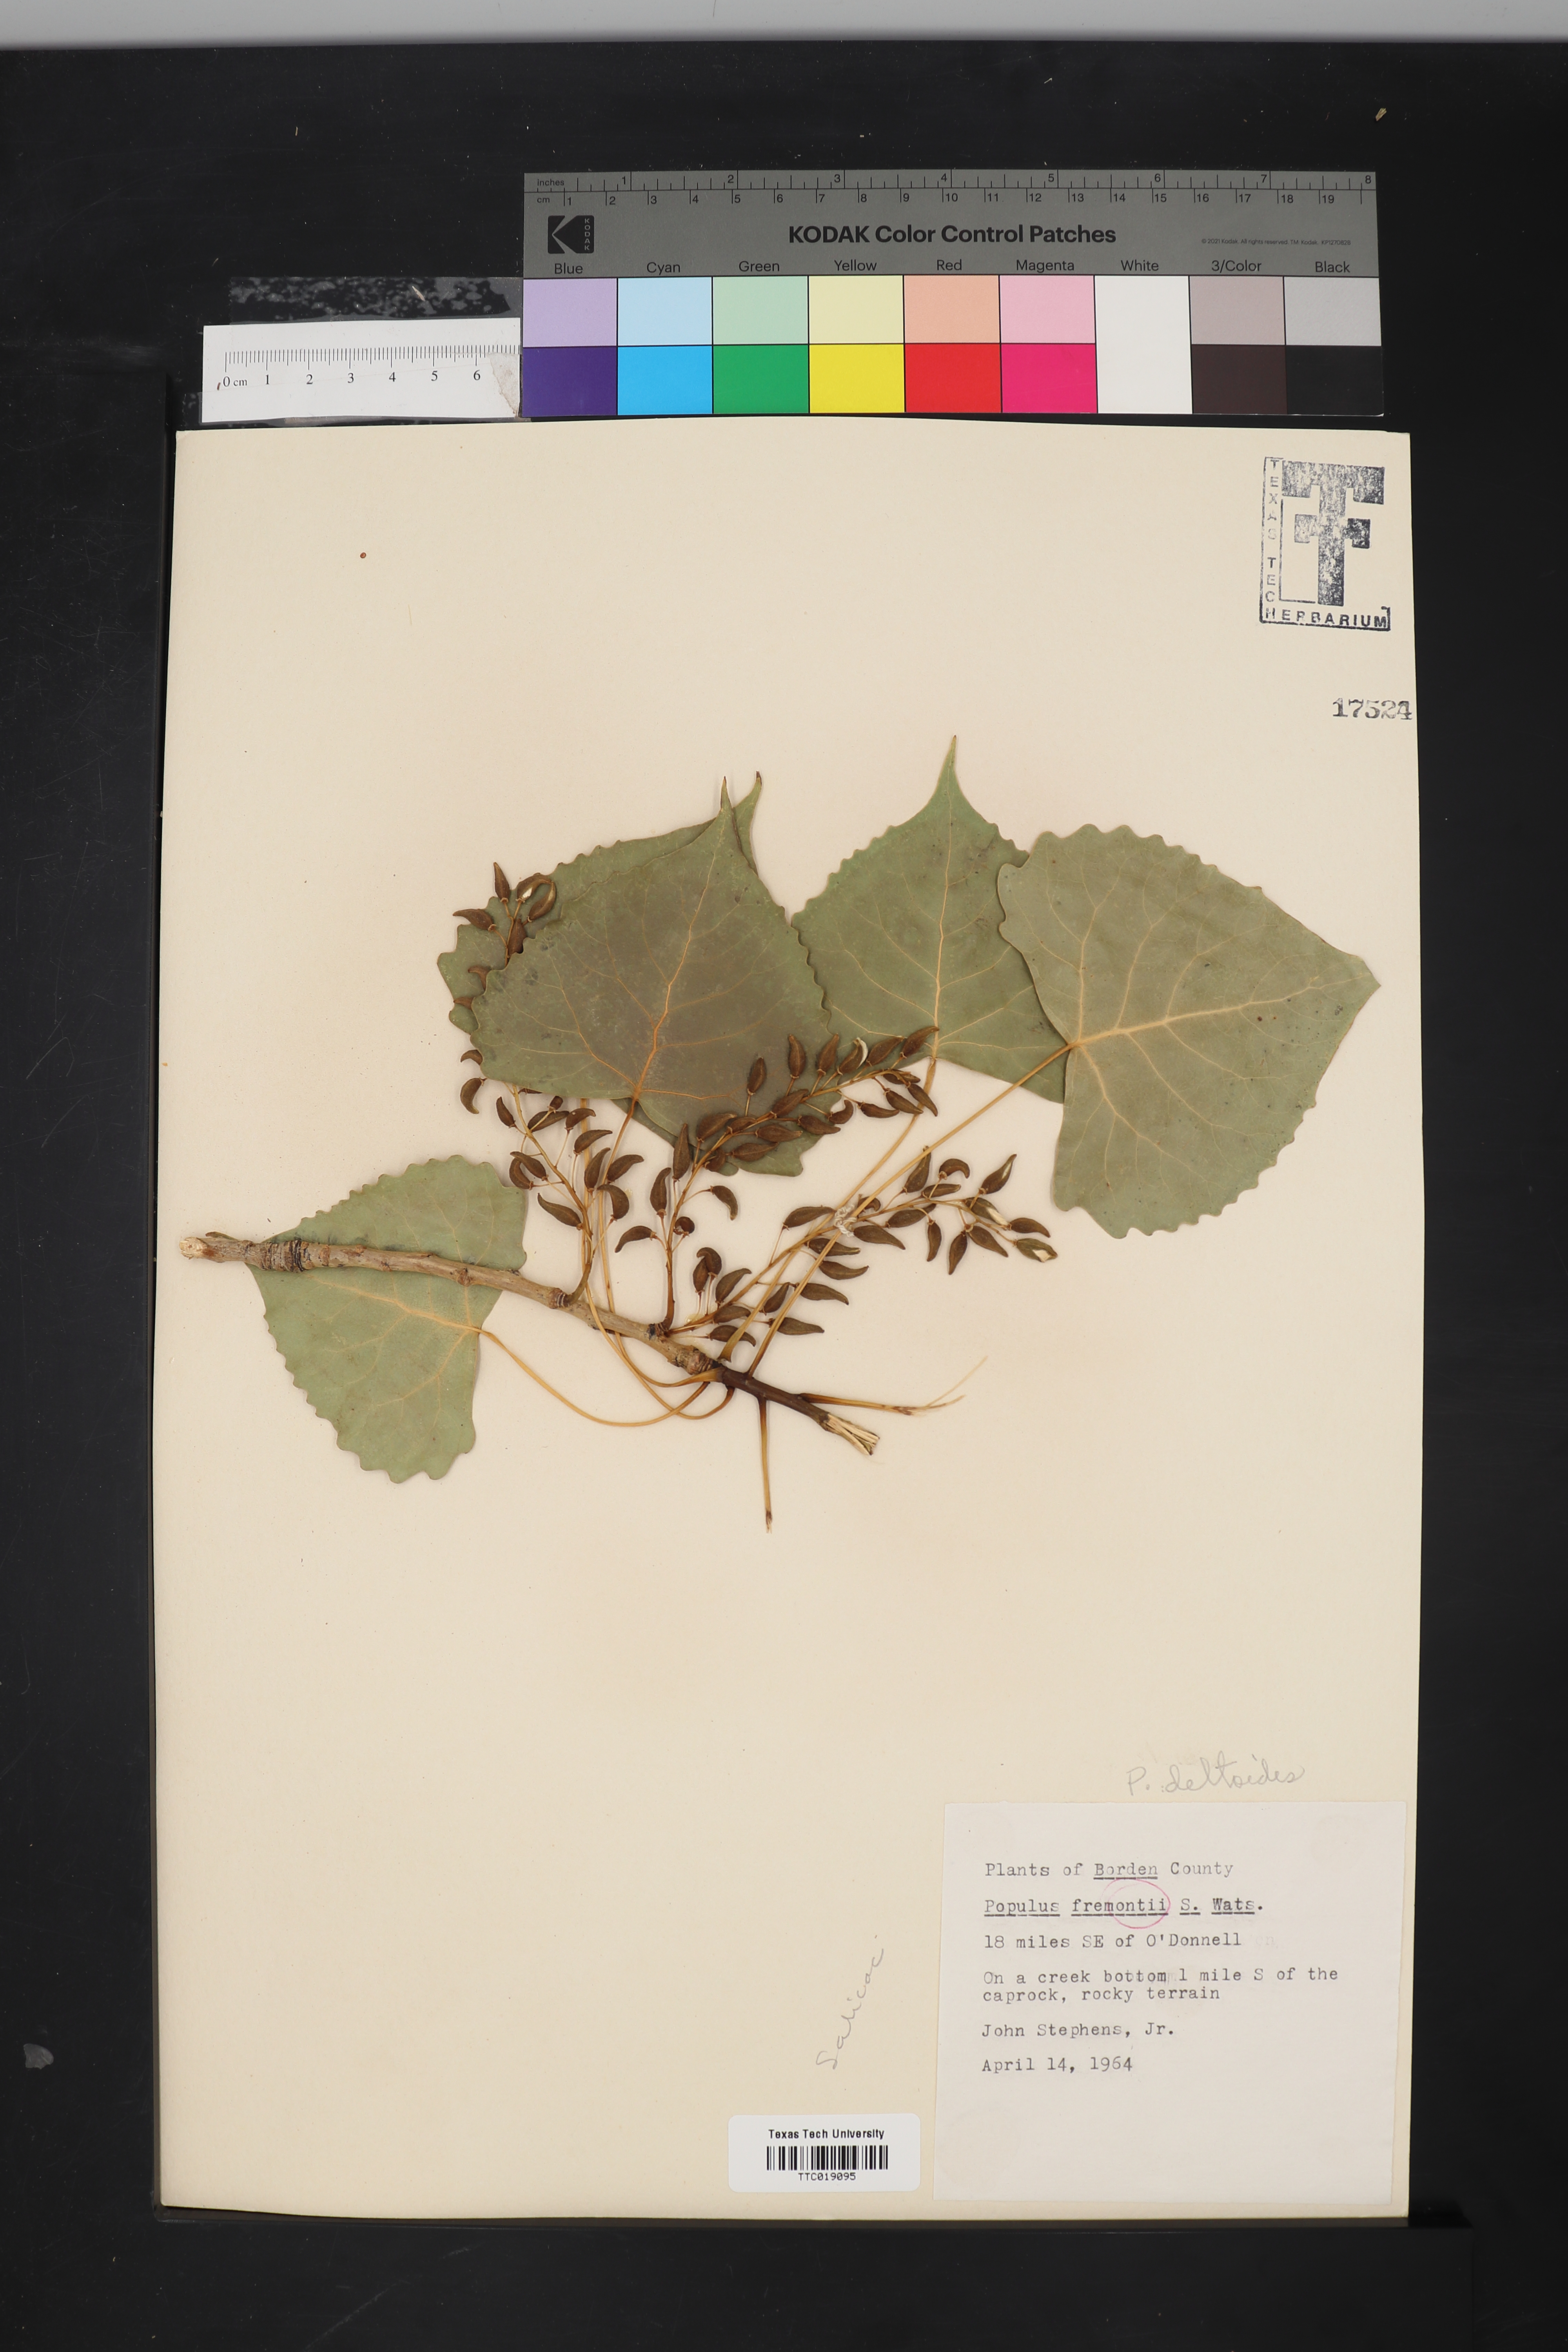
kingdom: Plantae
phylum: Tracheophyta
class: Magnoliopsida
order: Malpighiales
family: Salicaceae
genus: Populus
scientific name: Populus deltoides
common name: Eastern cottonwood
